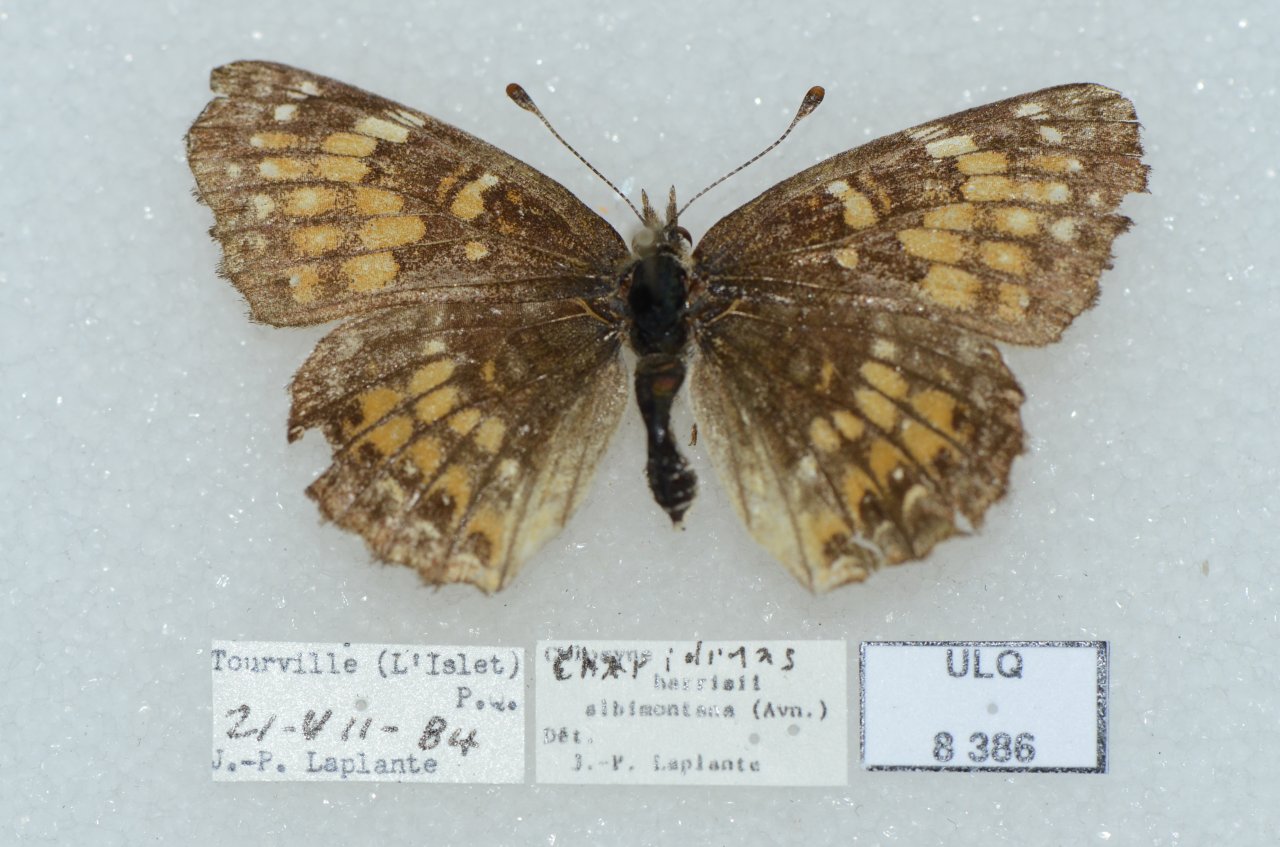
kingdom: Animalia
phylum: Arthropoda
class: Insecta
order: Lepidoptera
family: Nymphalidae
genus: Chlosyne
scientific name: Chlosyne harrisii
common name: Harris's Checkerspot
